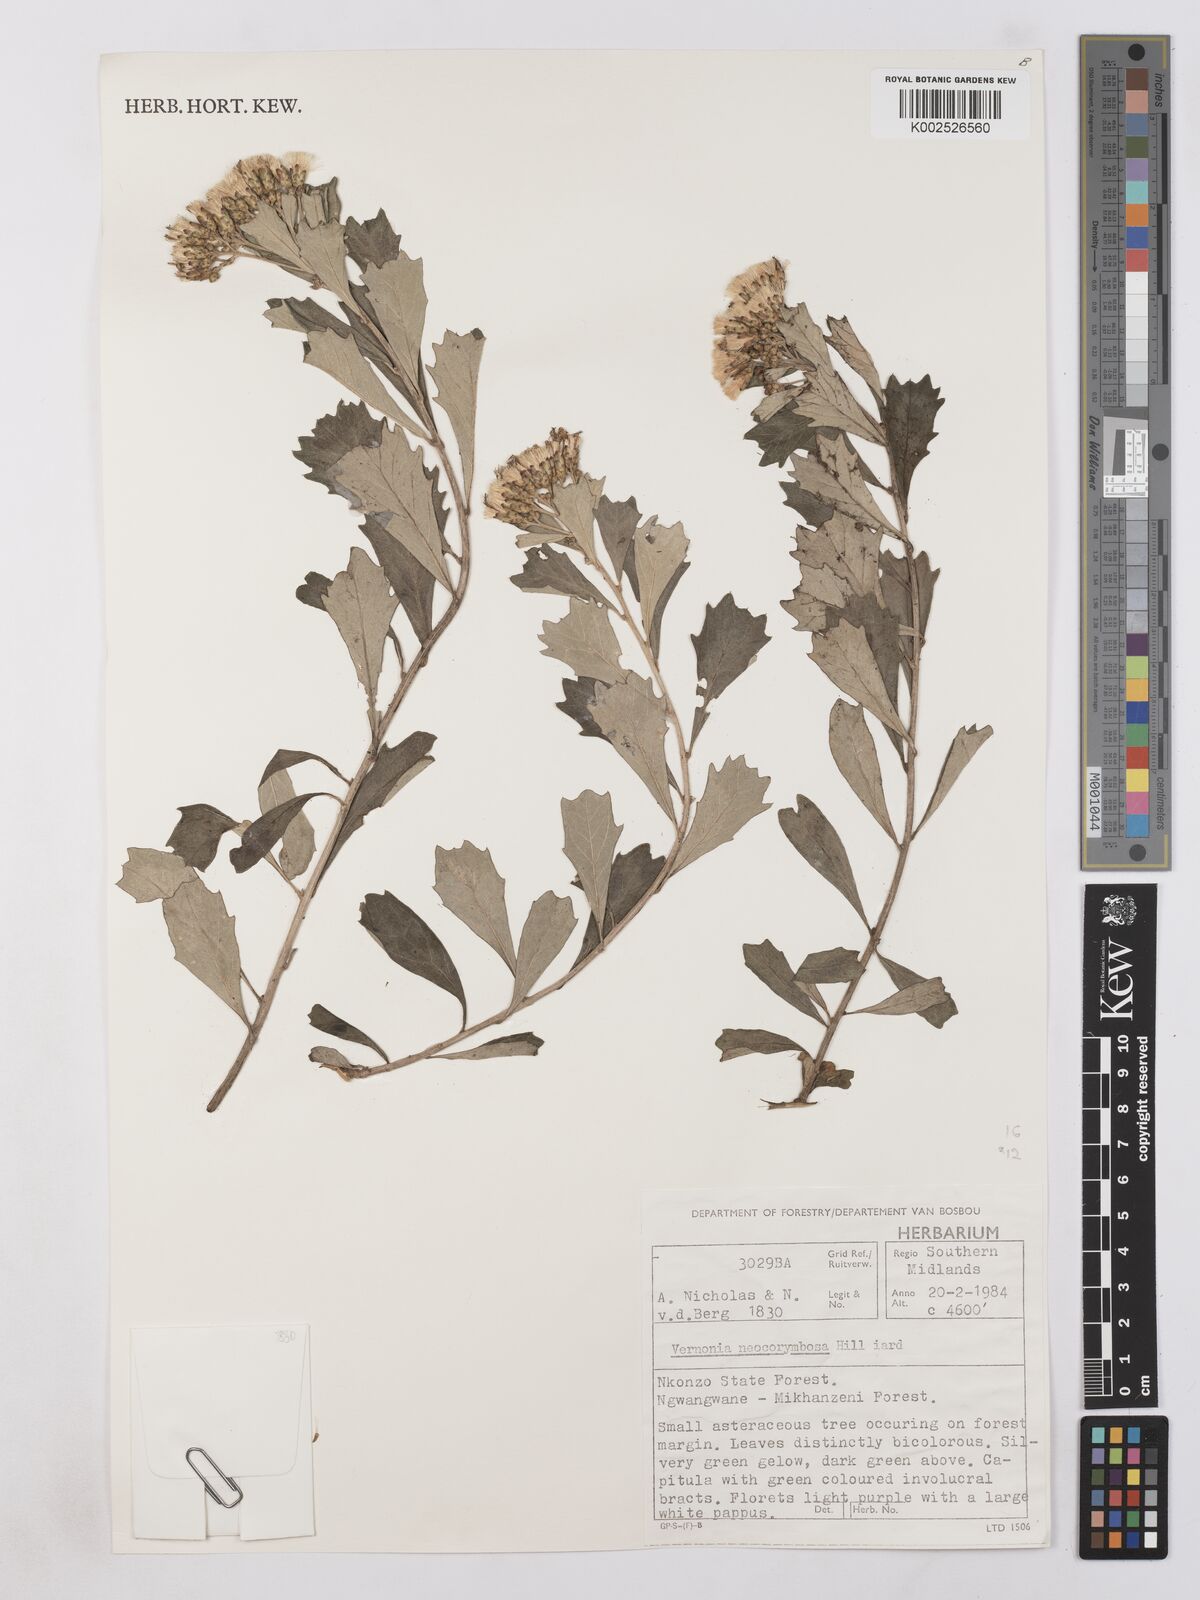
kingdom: Plantae
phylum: Tracheophyta
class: Magnoliopsida
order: Asterales
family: Asteraceae
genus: Gymnanthemum
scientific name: Gymnanthemum corymbosum
